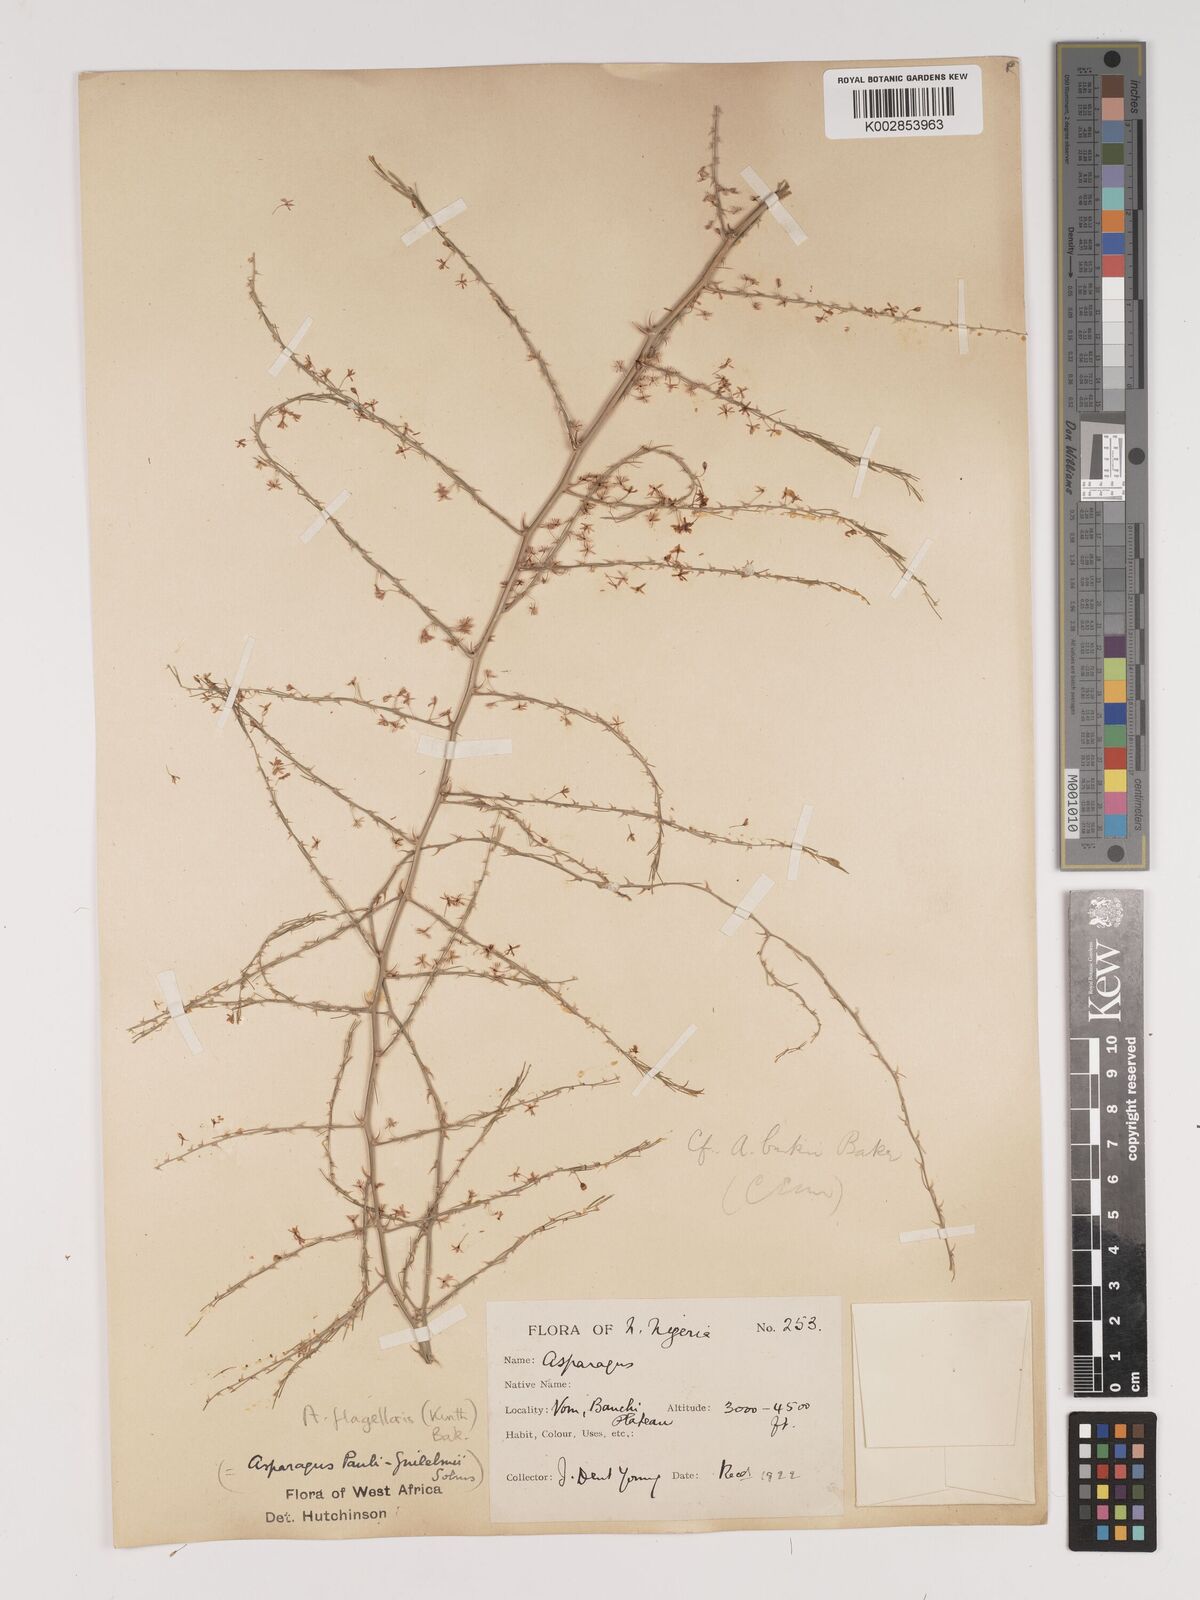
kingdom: Plantae
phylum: Tracheophyta
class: Liliopsida
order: Asparagales
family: Asparagaceae
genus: Asparagus
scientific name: Asparagus flagellaris
